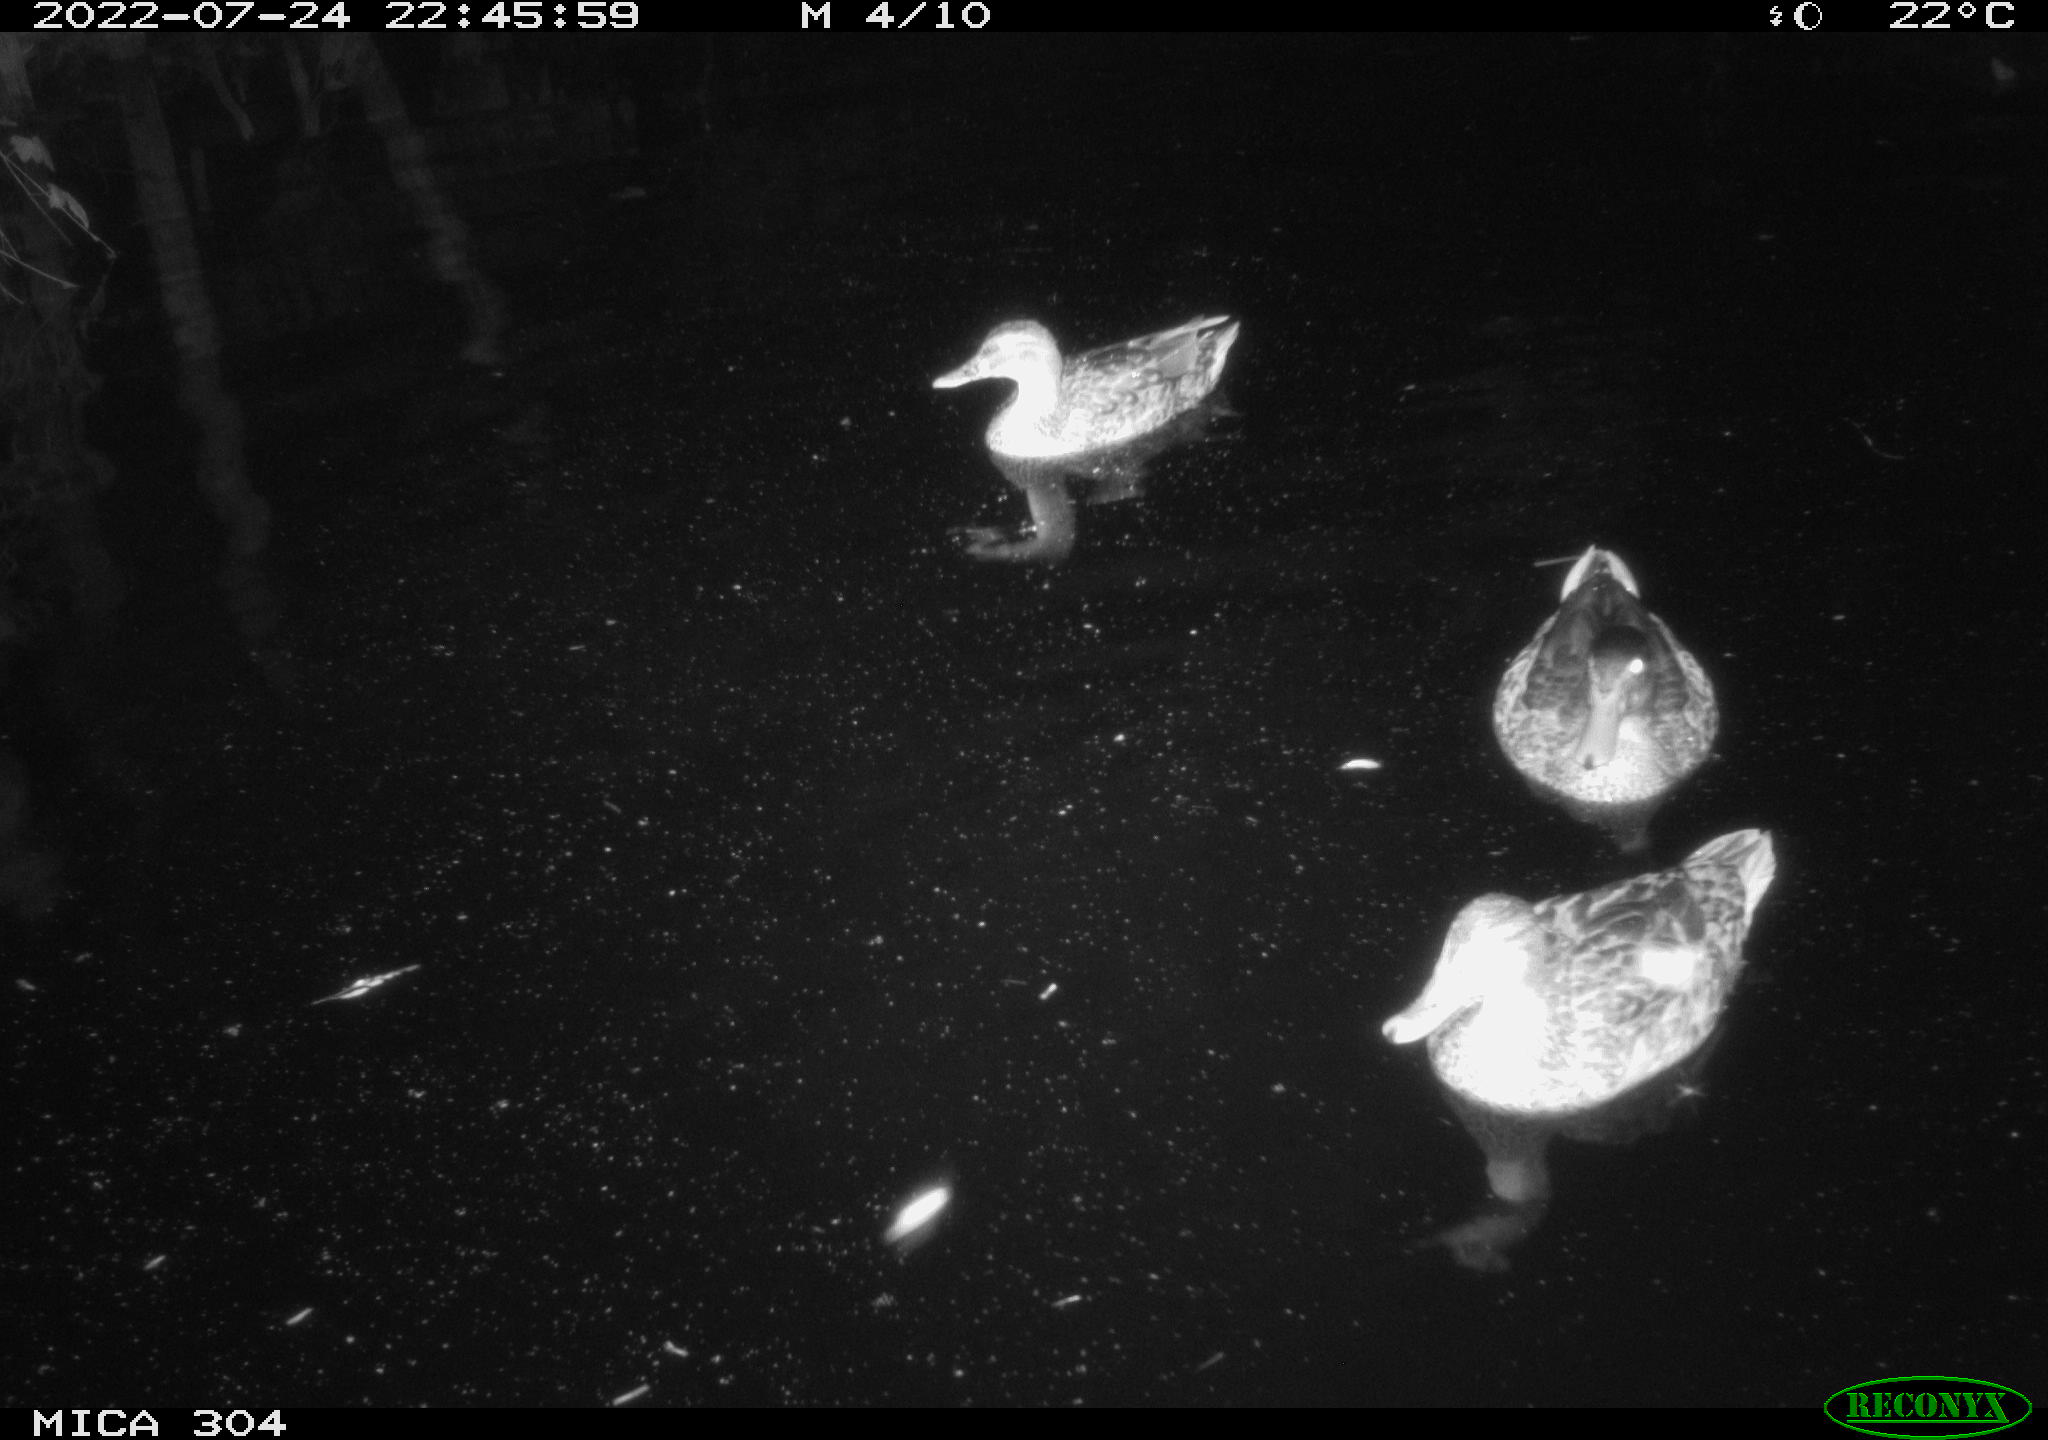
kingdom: Animalia
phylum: Chordata
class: Aves
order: Anseriformes
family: Anatidae
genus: Anas
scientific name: Anas platyrhynchos
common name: Mallard
